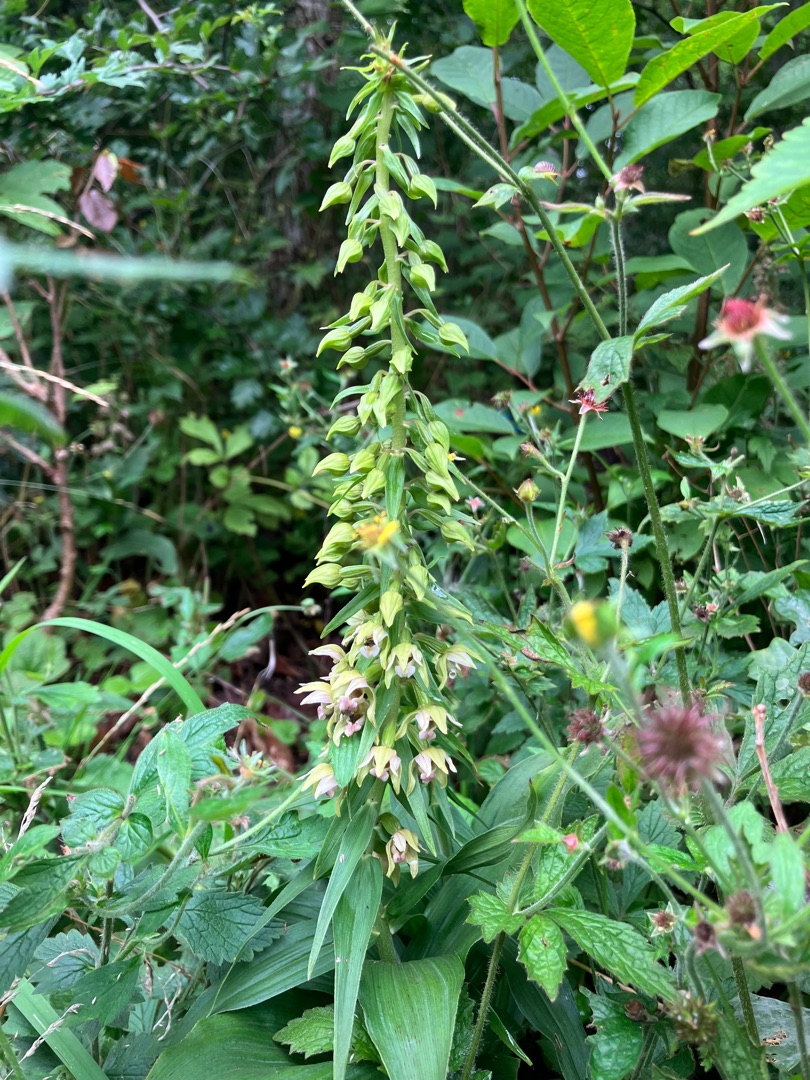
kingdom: Plantae
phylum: Tracheophyta
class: Liliopsida
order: Asparagales
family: Orchidaceae
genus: Epipactis
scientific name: Epipactis helleborine
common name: Skov-hullæbe
